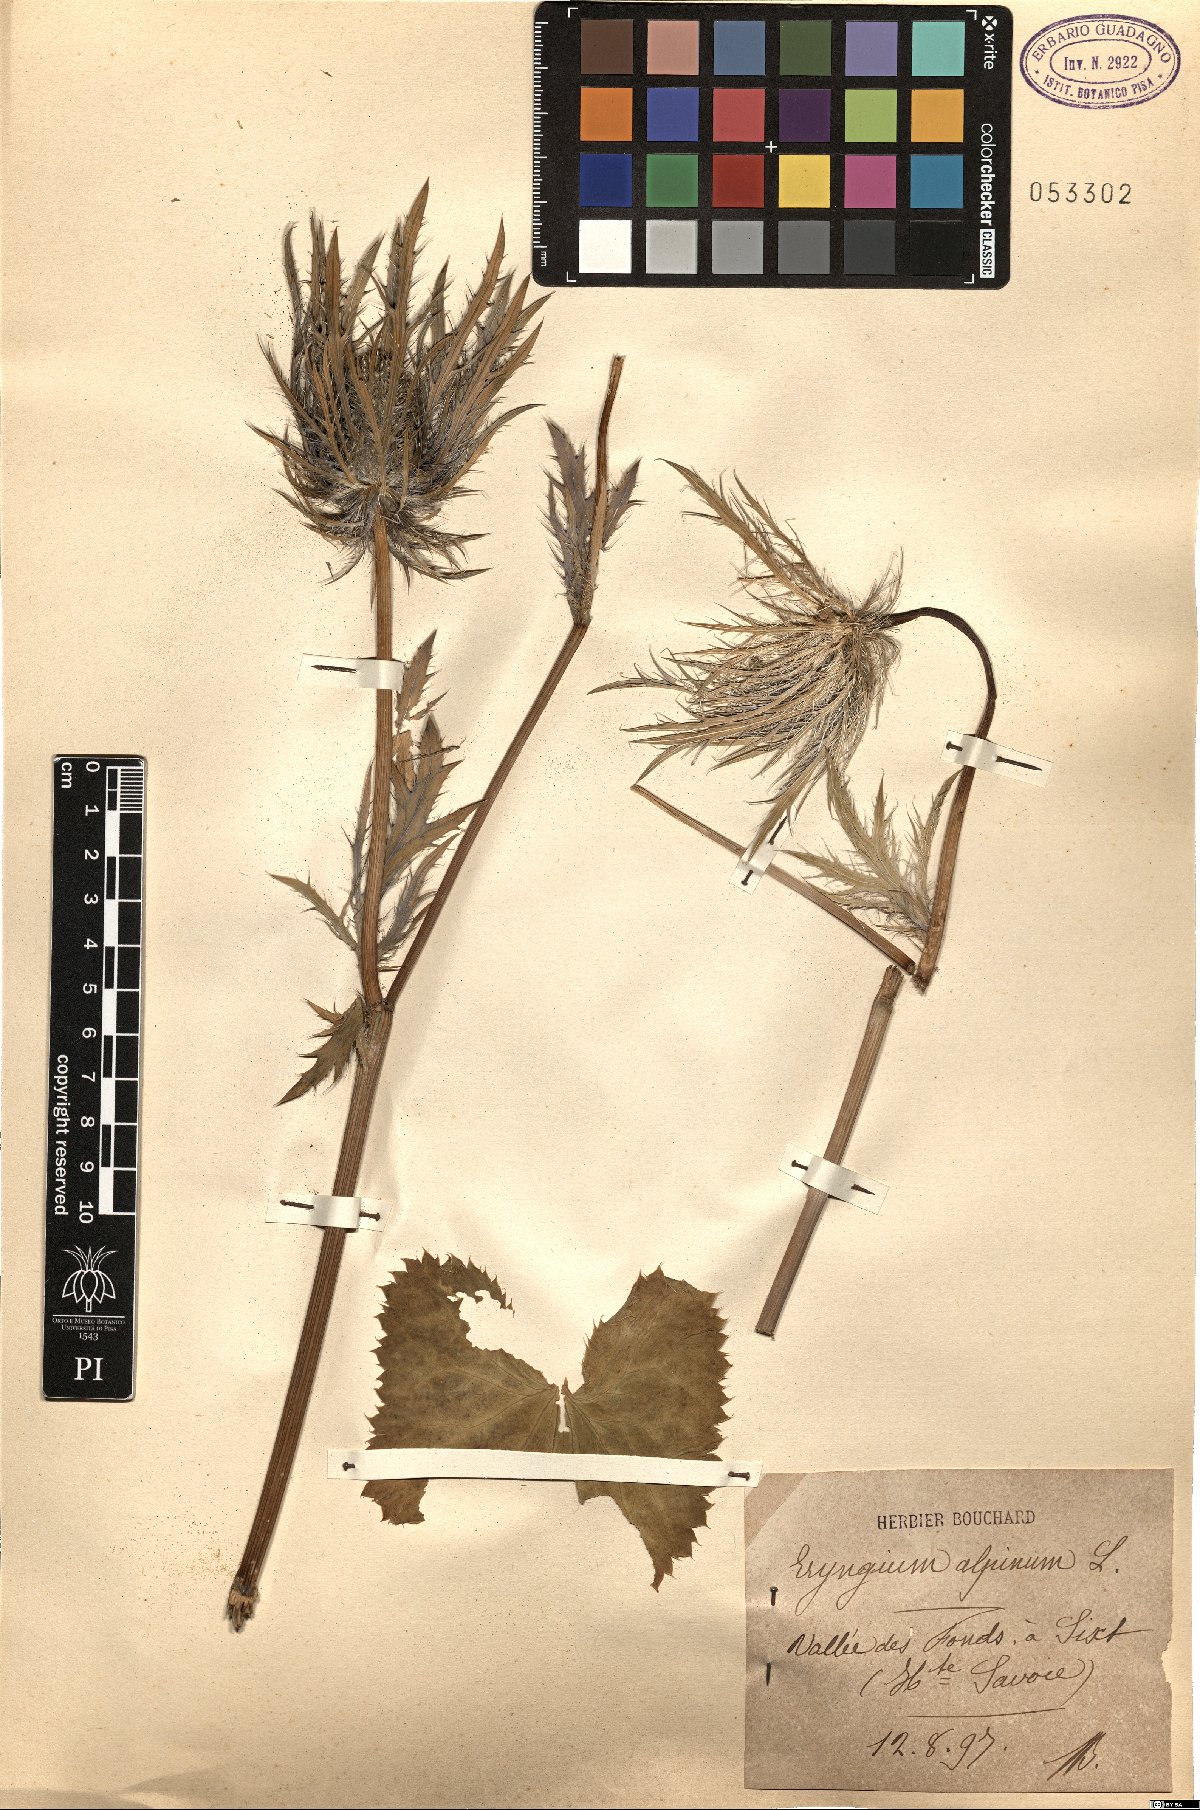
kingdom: Plantae
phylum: Tracheophyta
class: Magnoliopsida
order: Apiales
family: Apiaceae
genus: Eryngium
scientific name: Eryngium alpinum
